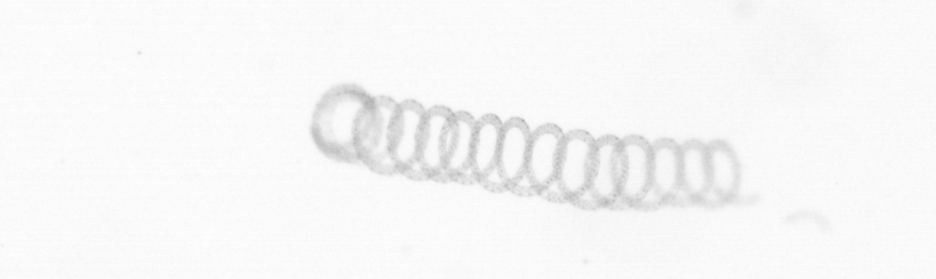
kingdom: Chromista
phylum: Ochrophyta
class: Bacillariophyceae
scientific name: Bacillariophyceae
